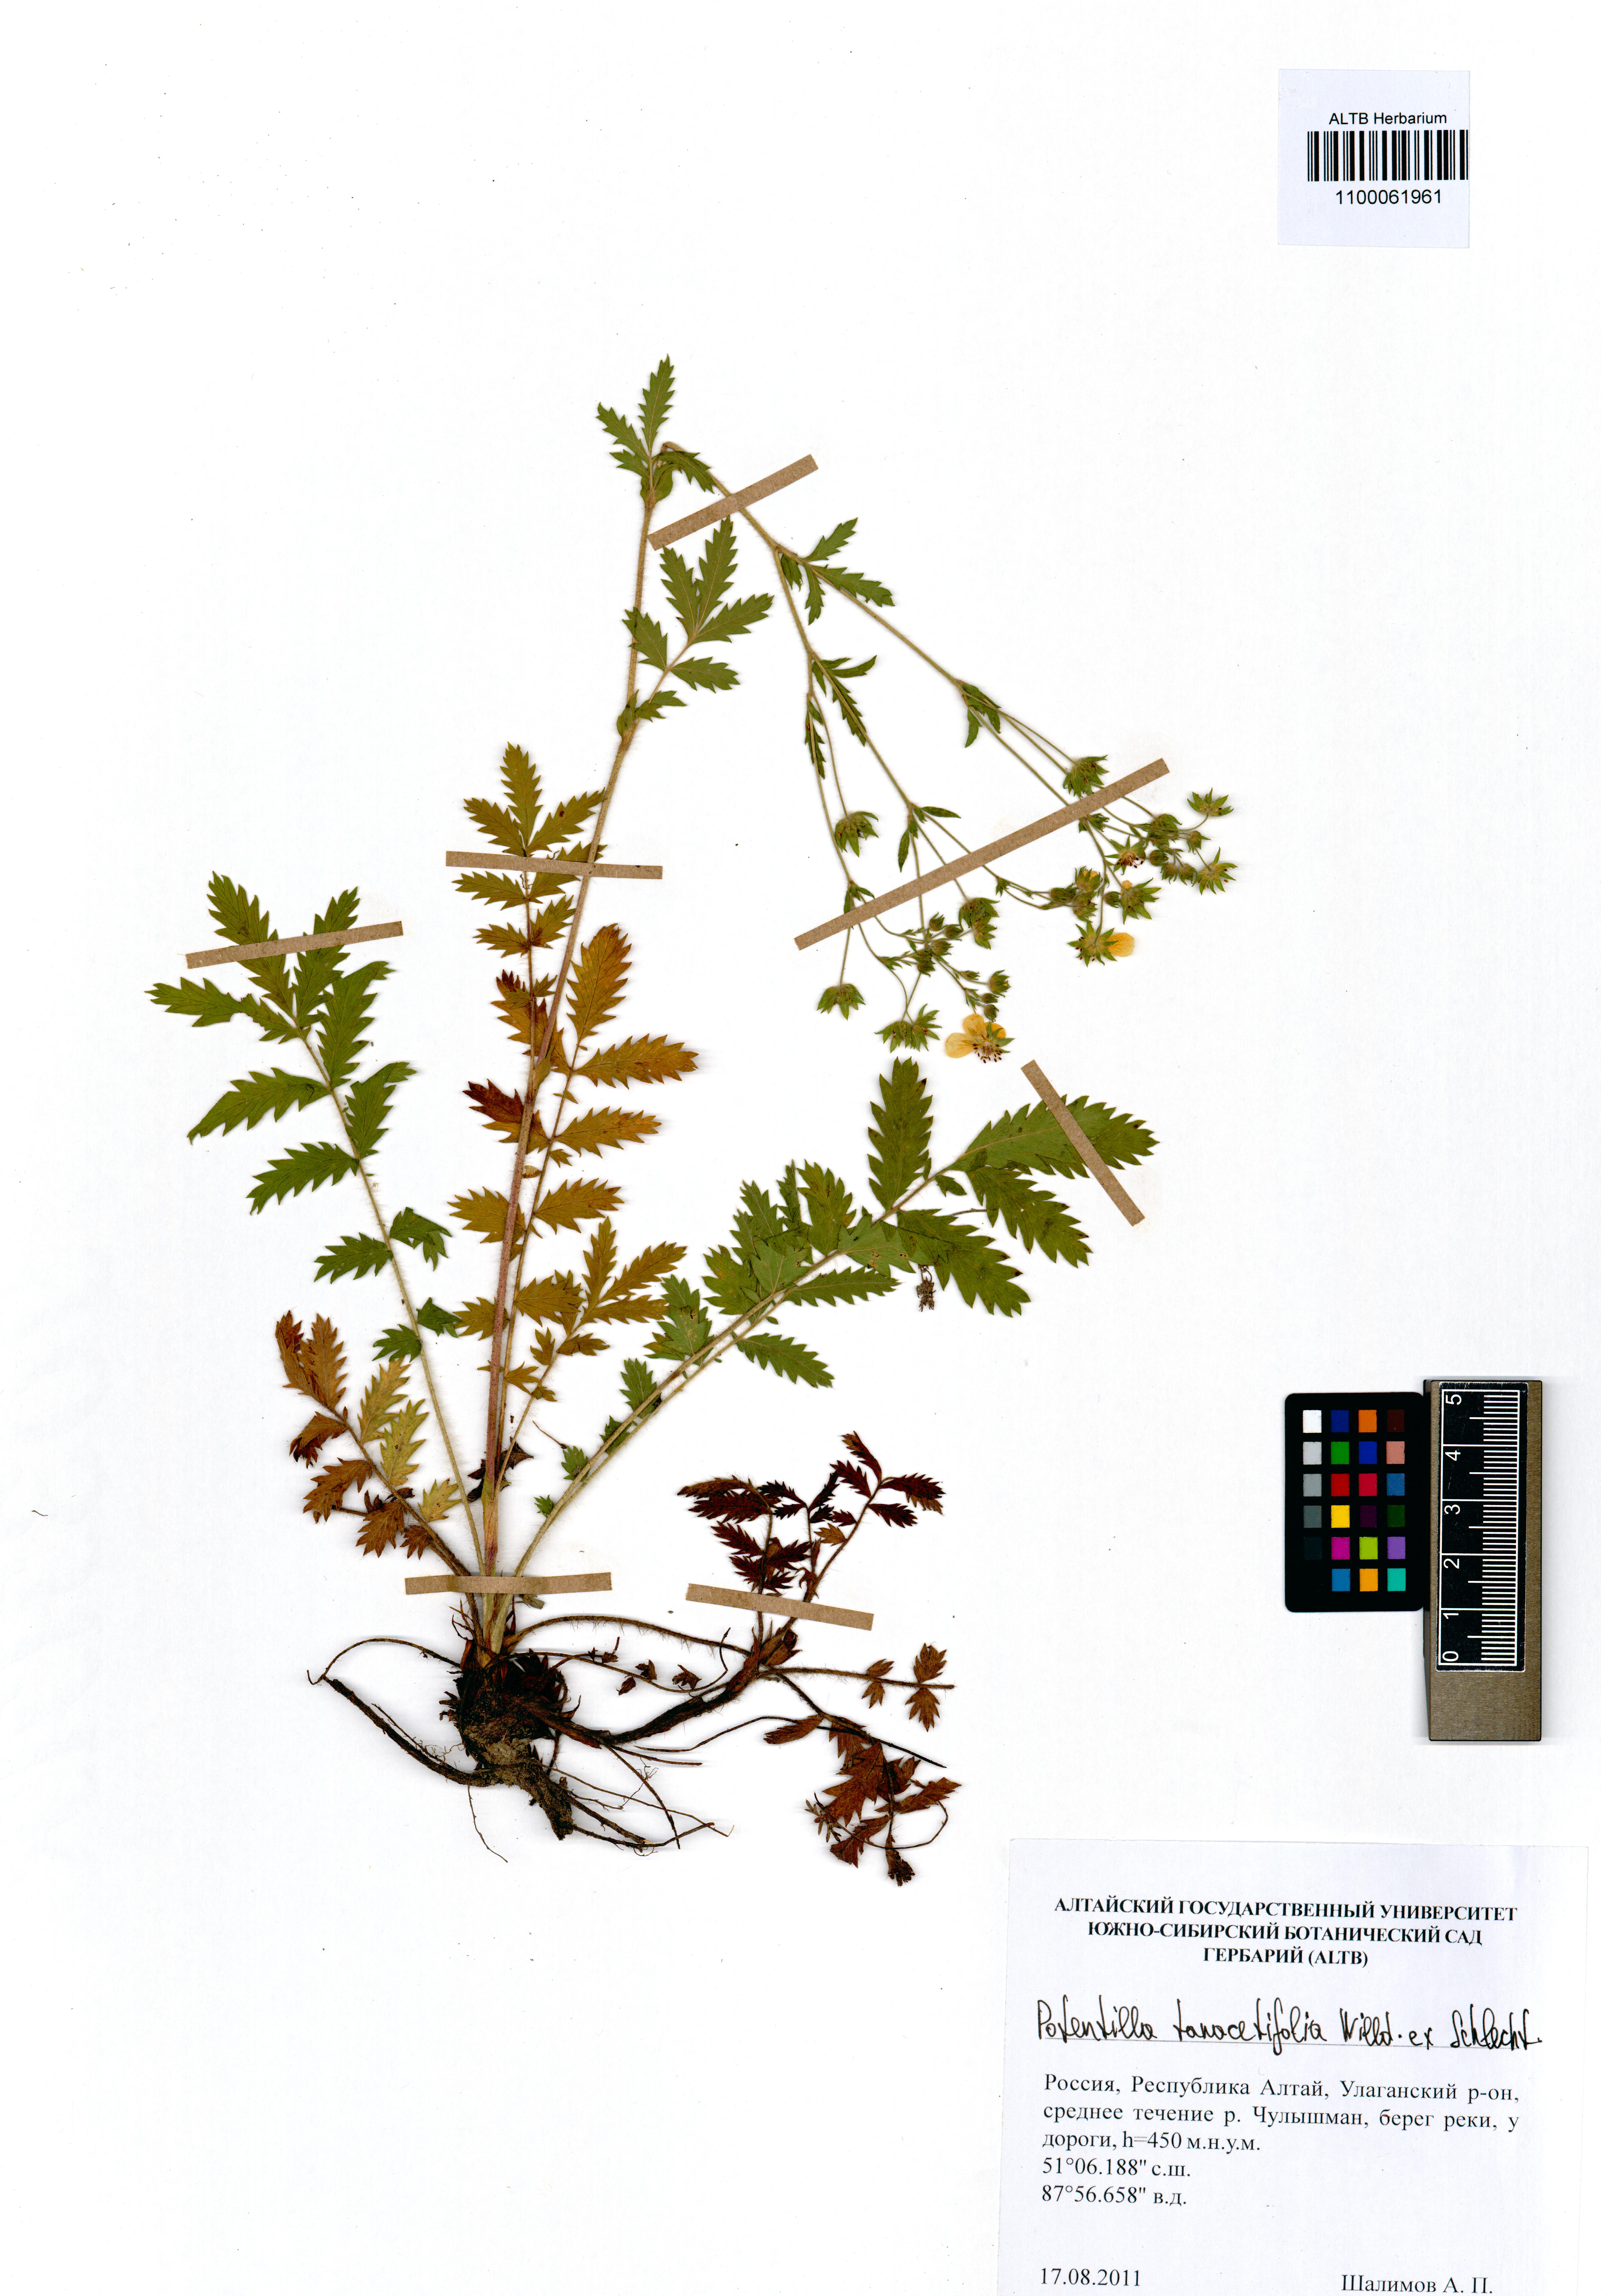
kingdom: Plantae
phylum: Tracheophyta
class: Magnoliopsida
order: Rosales
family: Rosaceae
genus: Potentilla
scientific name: Potentilla tanacetifolia
